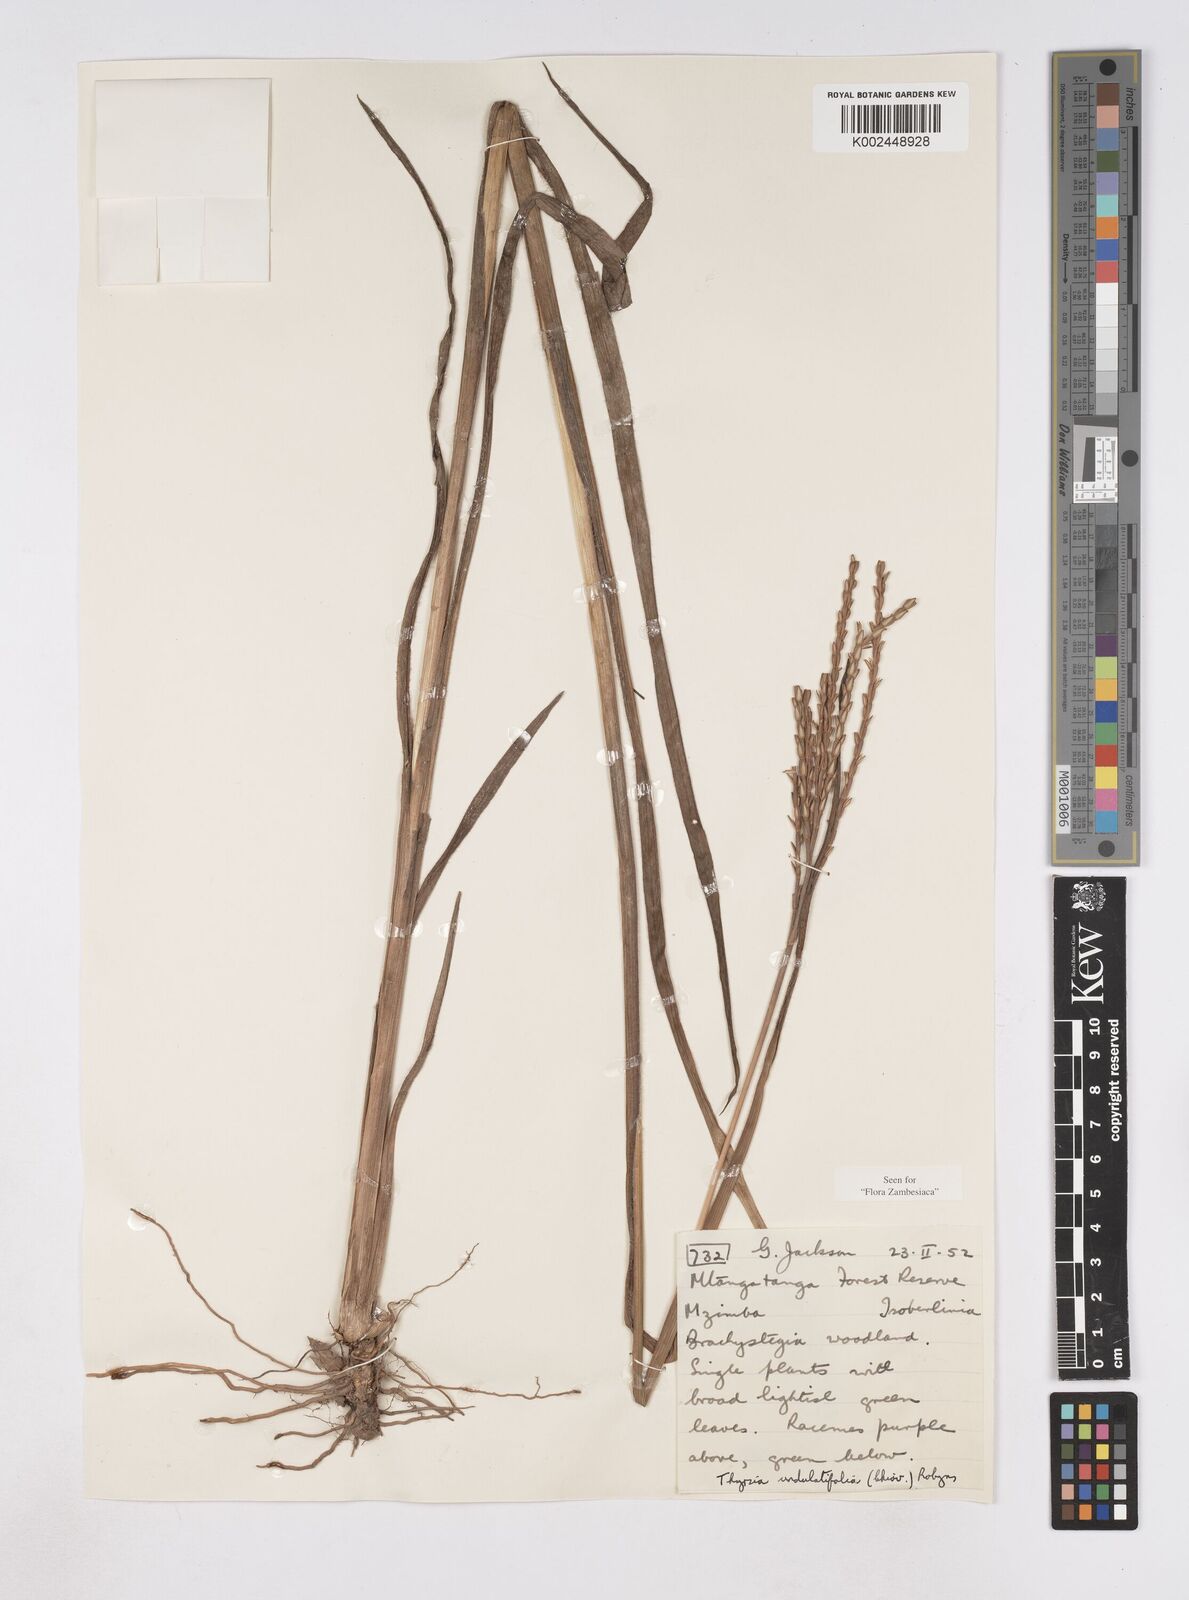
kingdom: Plantae
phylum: Tracheophyta
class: Liliopsida
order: Poales
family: Poaceae
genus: Thyrsia
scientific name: Thyrsia huillensis
